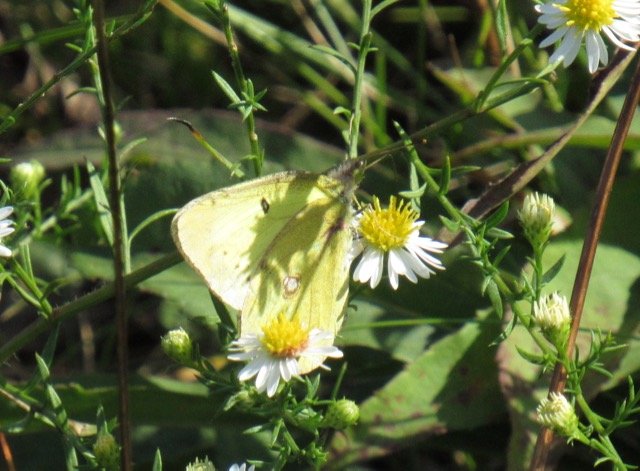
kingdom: Animalia
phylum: Arthropoda
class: Insecta
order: Lepidoptera
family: Pieridae
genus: Colias
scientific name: Colias philodice
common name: Clouded Sulphur
